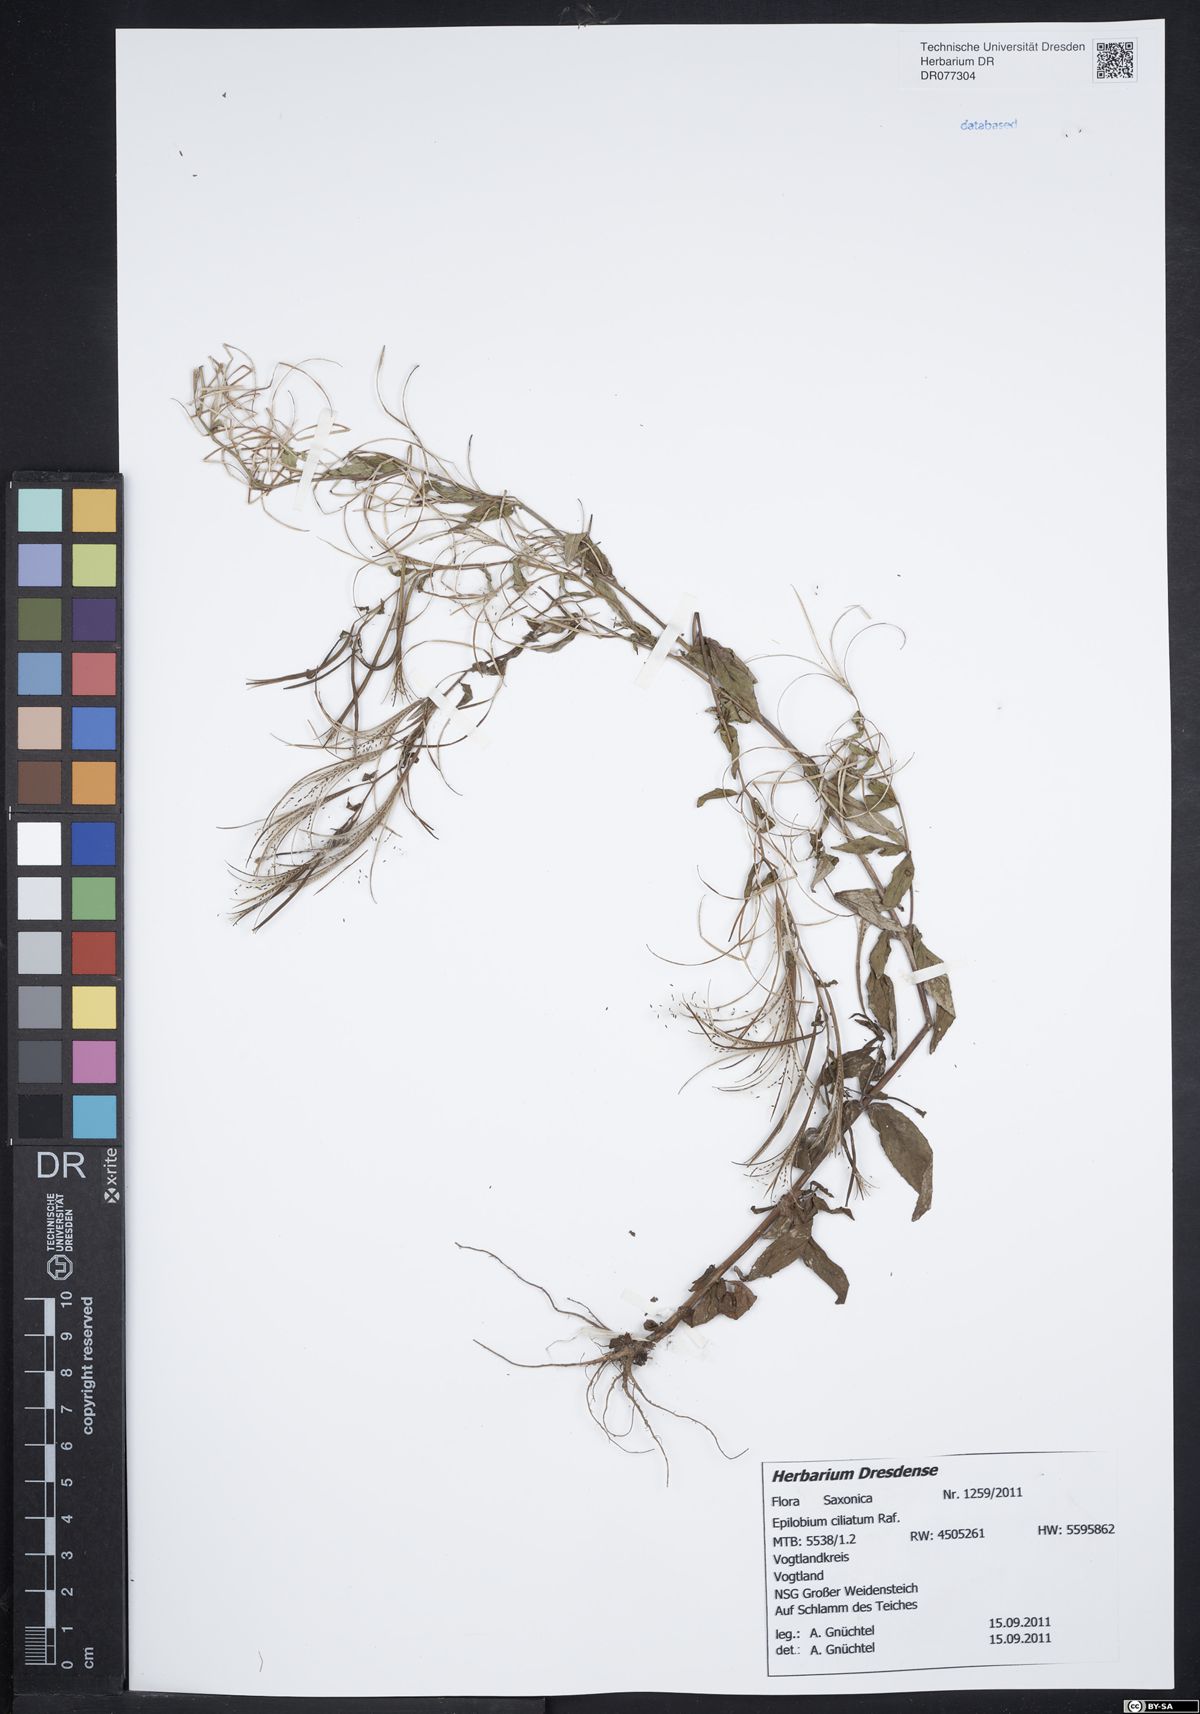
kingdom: Plantae
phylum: Tracheophyta
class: Magnoliopsida
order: Myrtales
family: Onagraceae
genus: Epilobium
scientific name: Epilobium ciliatum
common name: American willowherb
